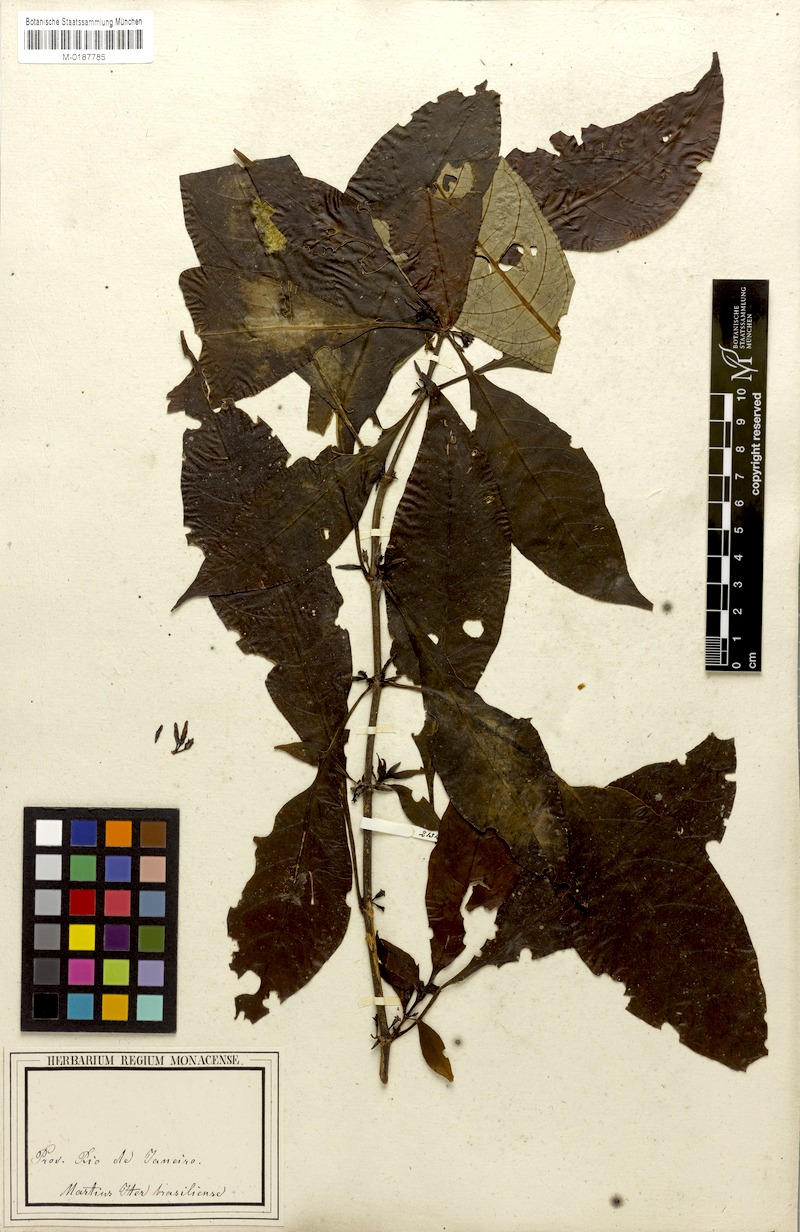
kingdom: Plantae
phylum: Tracheophyta
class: Magnoliopsida
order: Gentianales
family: Rubiaceae
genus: Hoffmannia
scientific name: Hoffmannia peckii
